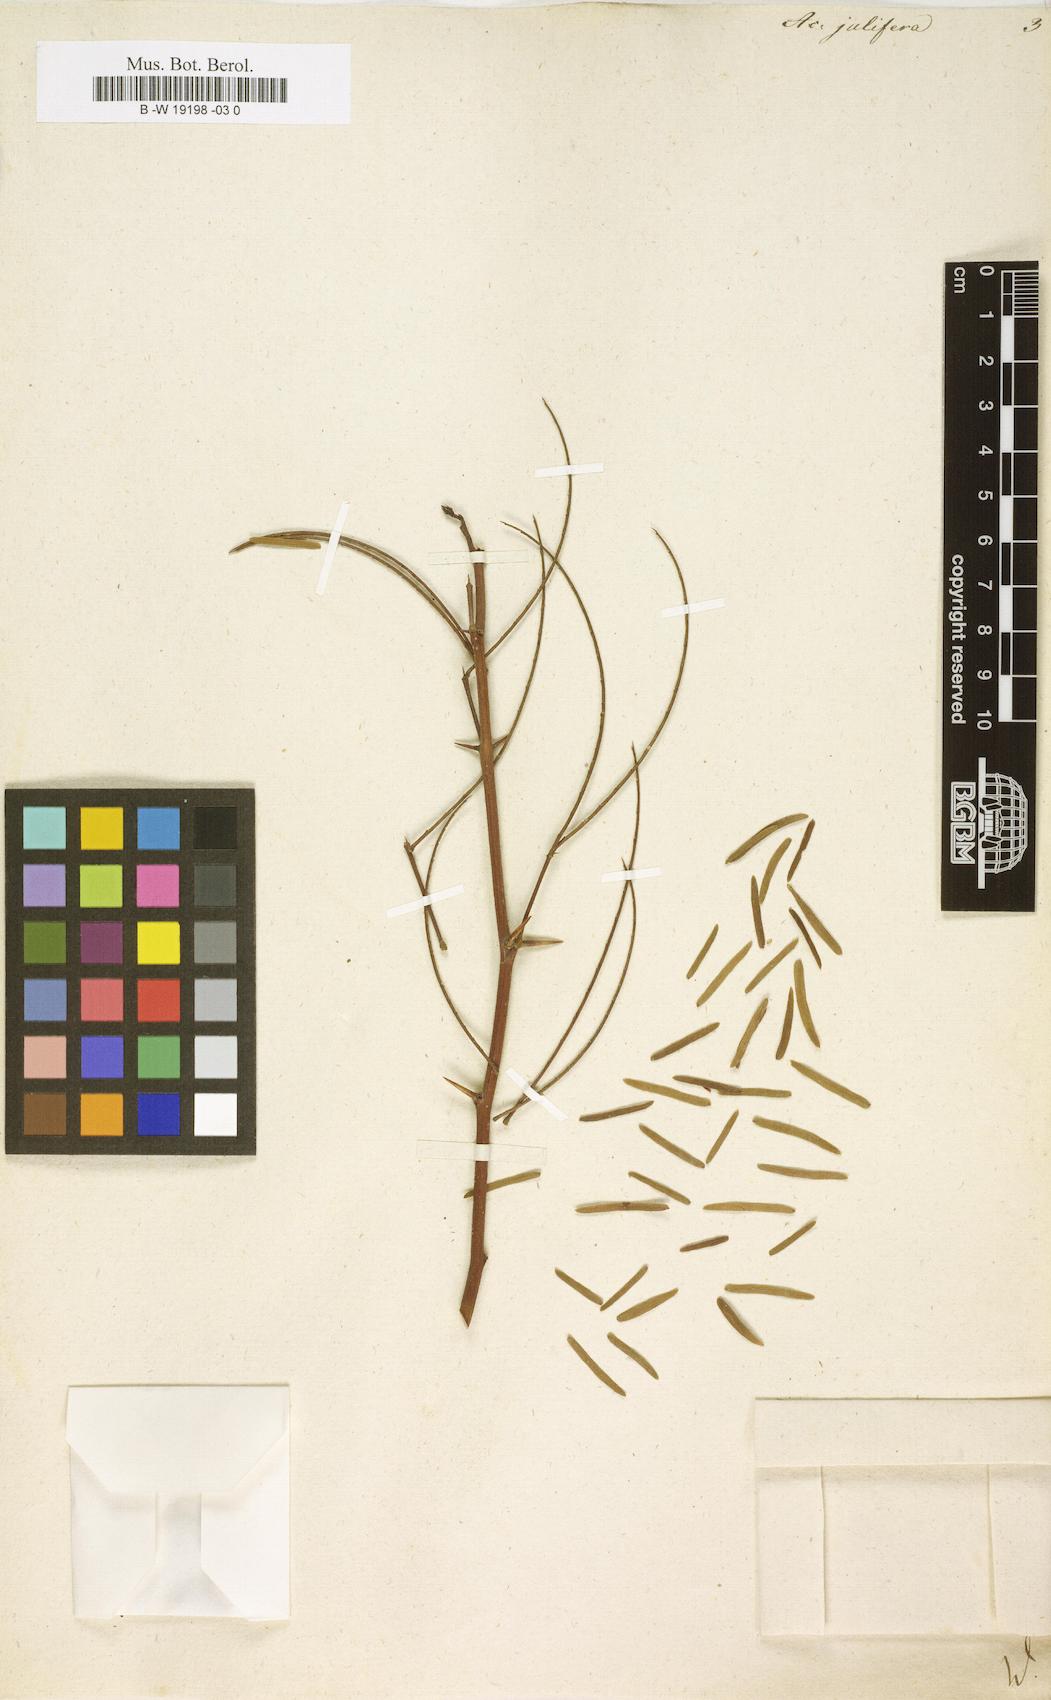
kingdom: Plantae
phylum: Tracheophyta
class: Magnoliopsida
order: Fabales
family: Fabaceae
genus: Prosopis
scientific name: Prosopis juliflora
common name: Mesquite
